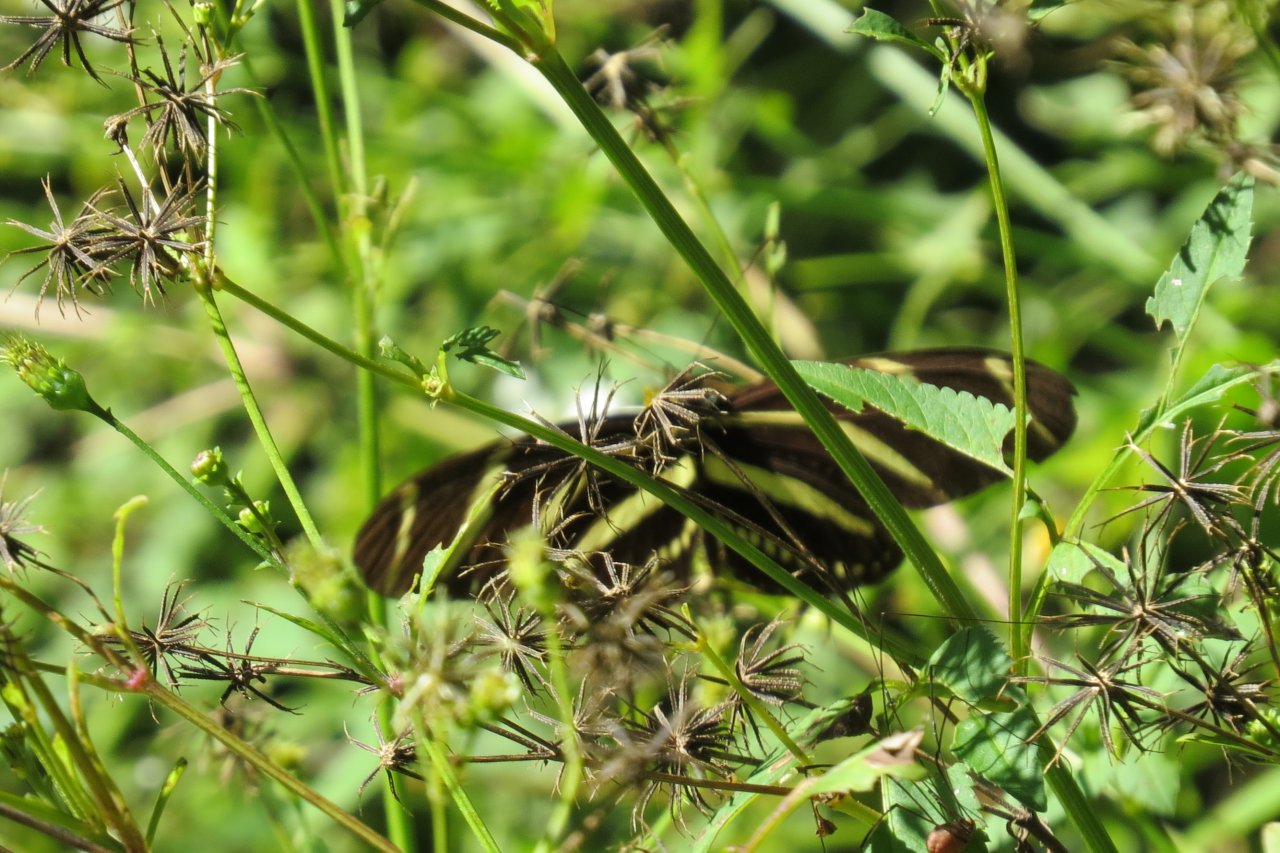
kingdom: Animalia
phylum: Arthropoda
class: Insecta
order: Lepidoptera
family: Nymphalidae
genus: Heliconius
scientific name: Heliconius charithonia
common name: Zebra Longwing
